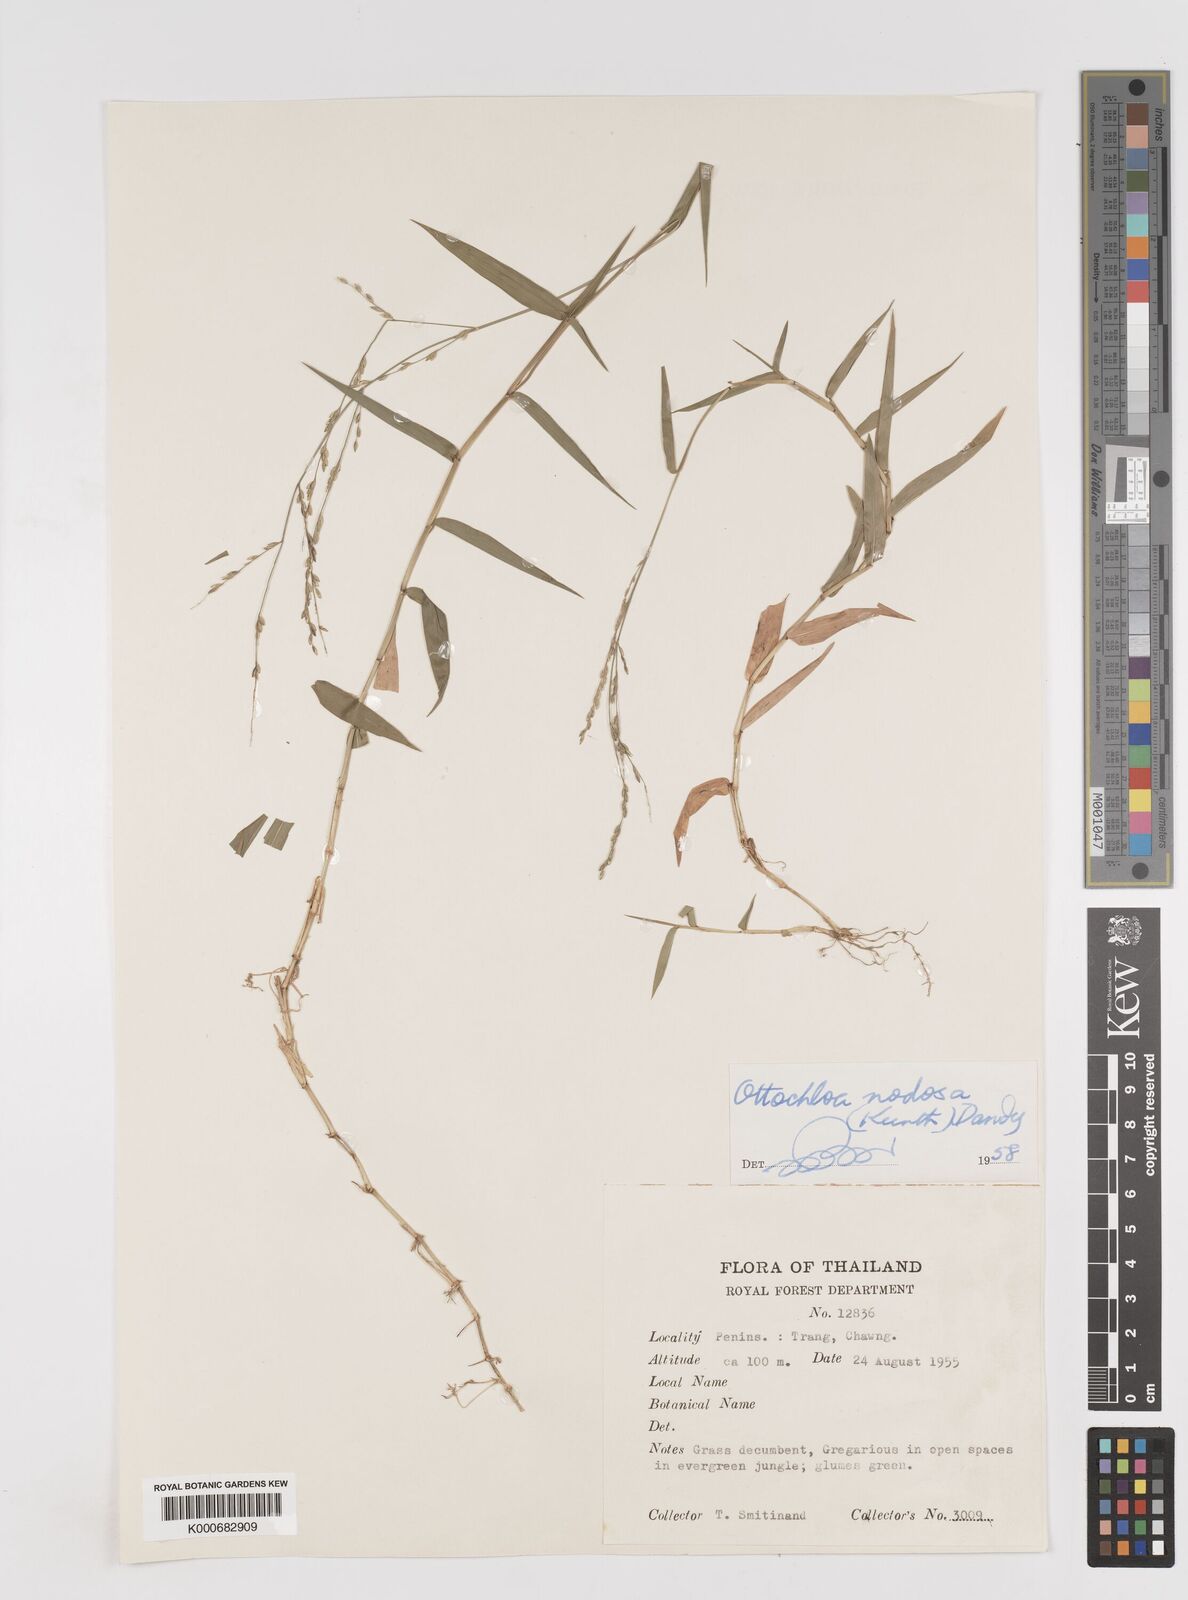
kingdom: Plantae
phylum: Tracheophyta
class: Liliopsida
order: Poales
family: Poaceae
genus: Ottochloa
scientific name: Ottochloa nodosa
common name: Slender-panic grass
